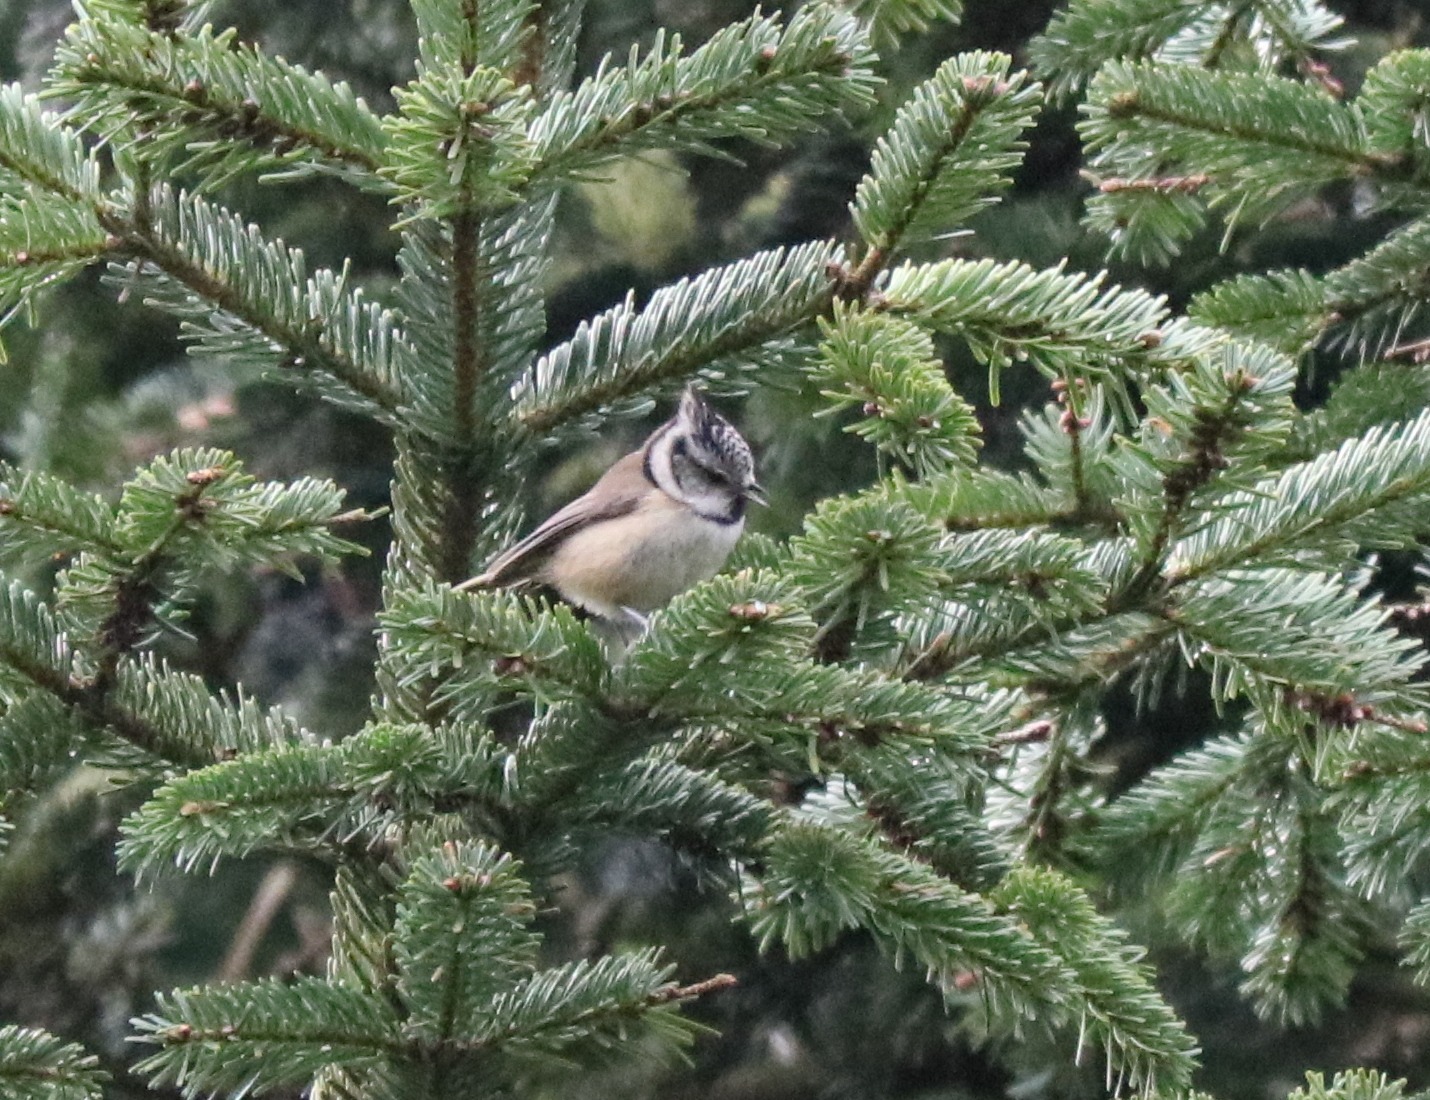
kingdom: Animalia
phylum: Chordata
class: Aves
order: Passeriformes
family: Paridae
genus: Lophophanes
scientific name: Lophophanes cristatus
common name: Topmejse
